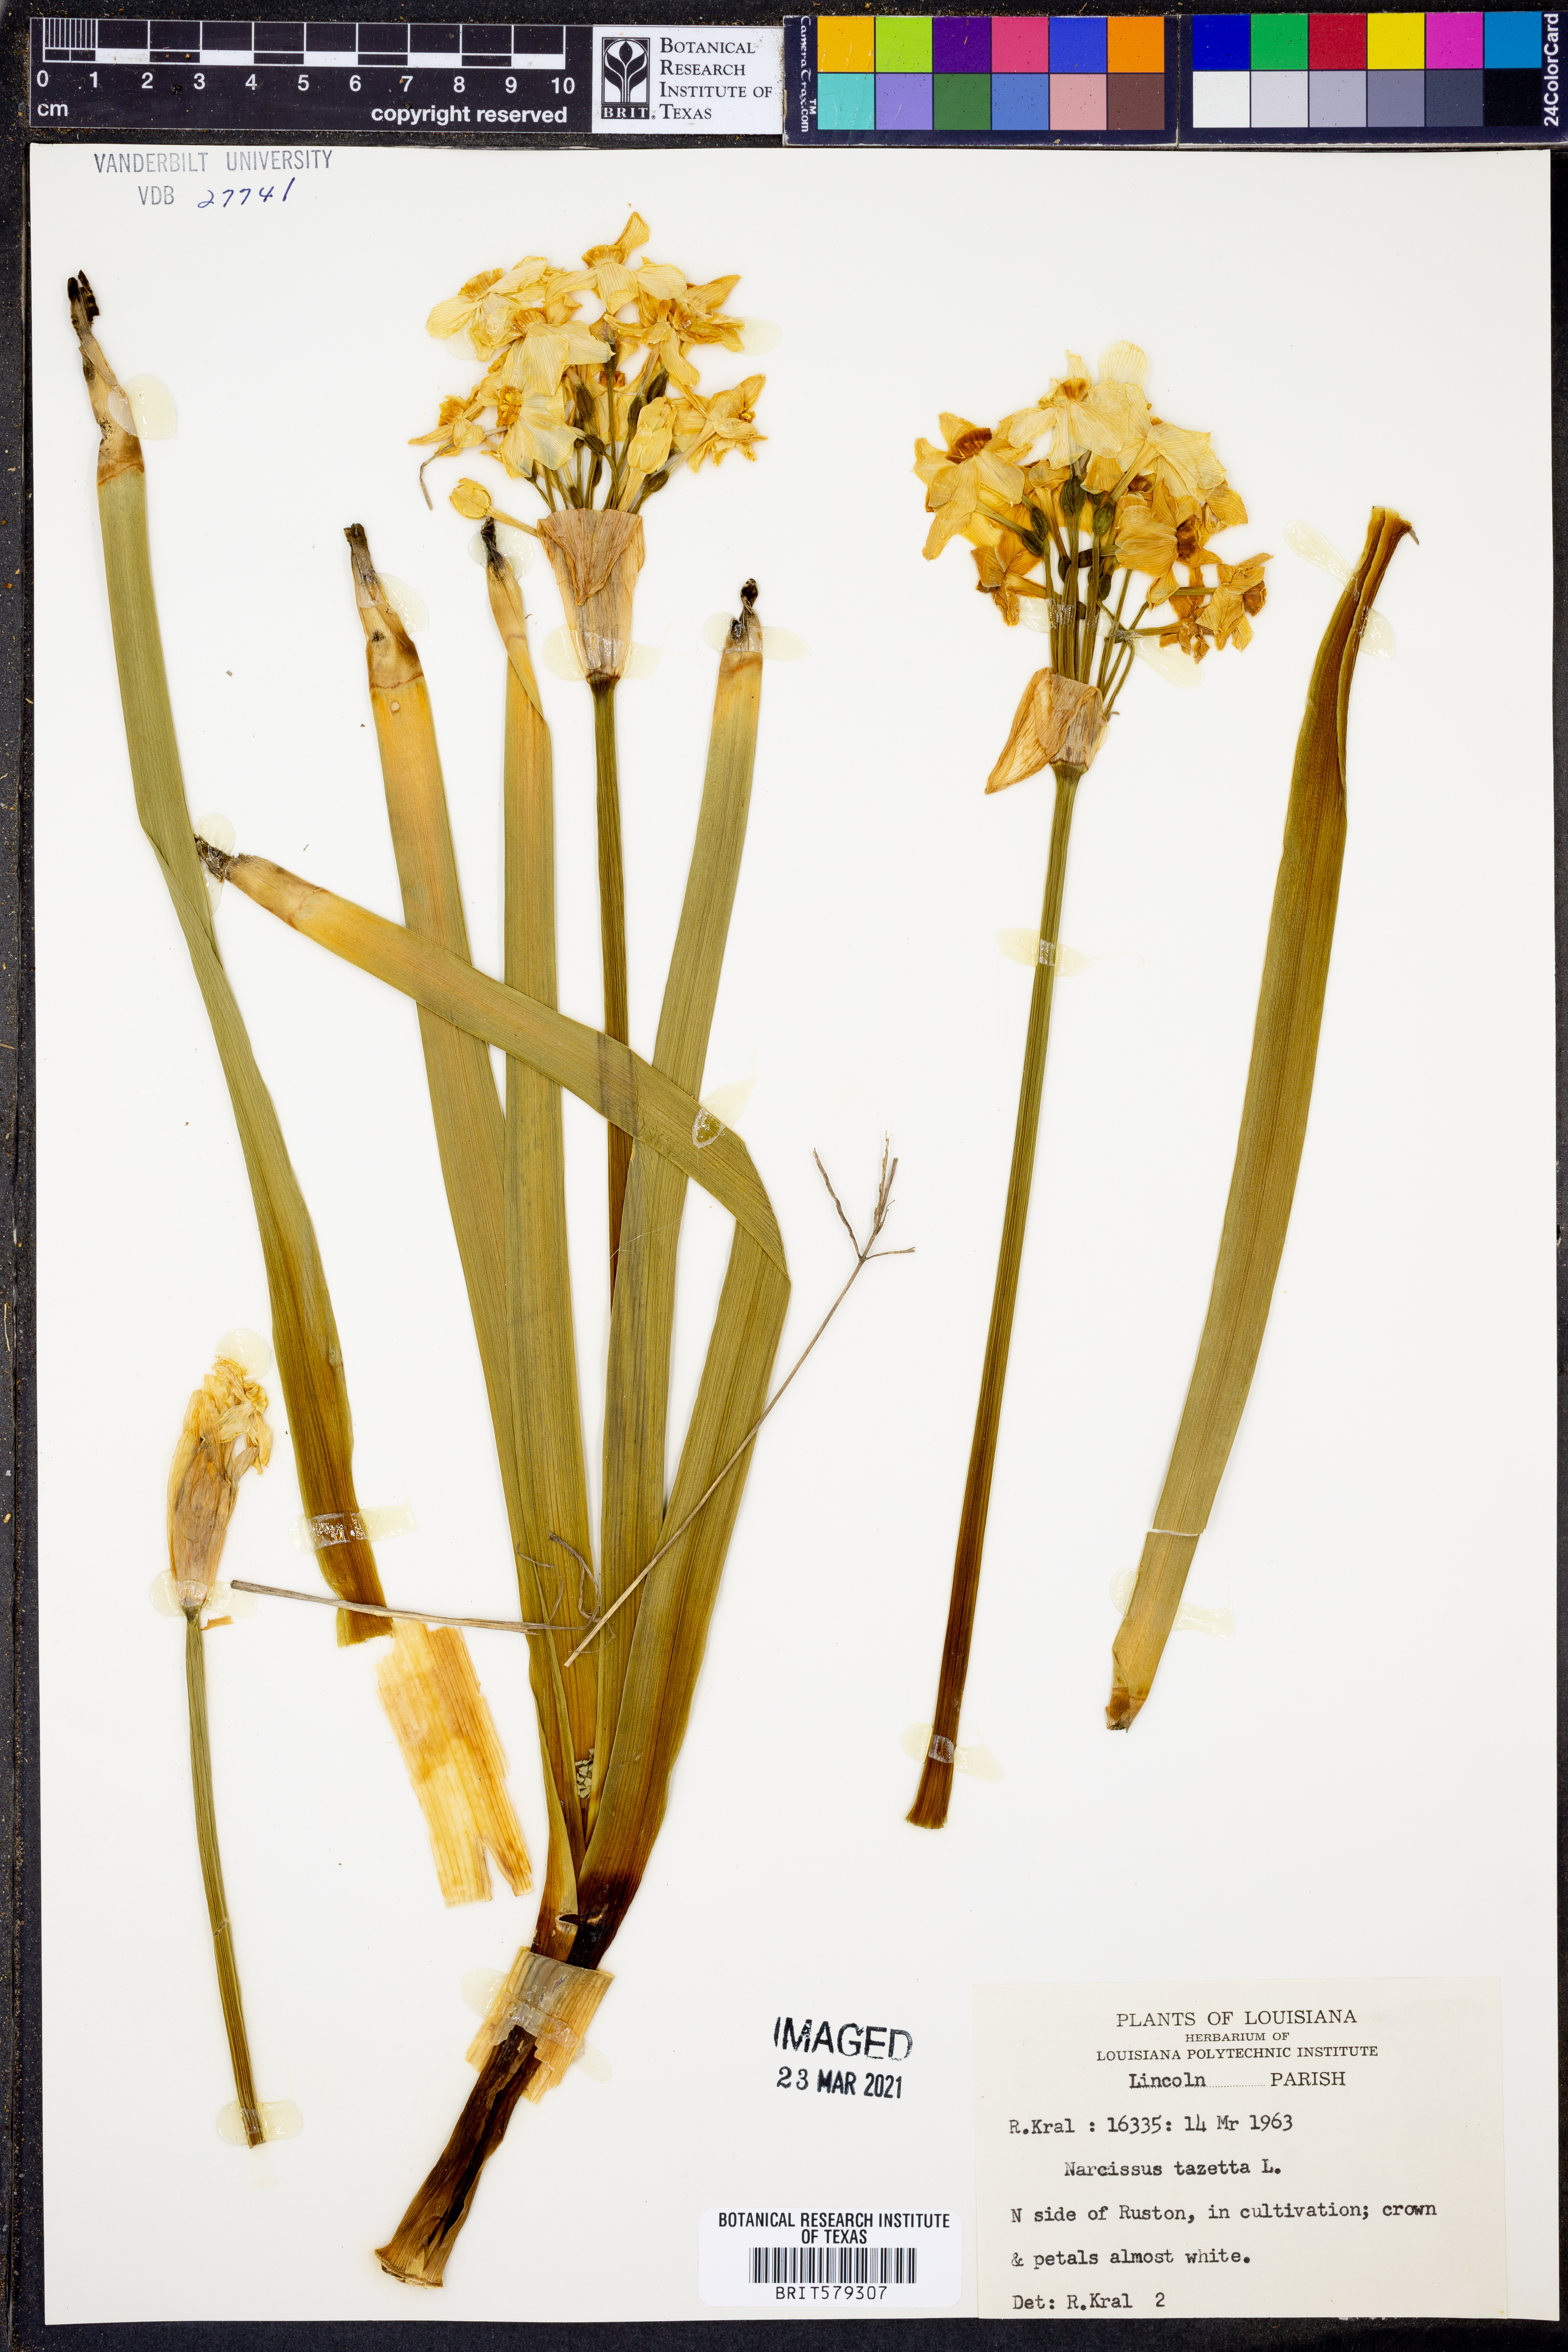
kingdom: Plantae
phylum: Tracheophyta
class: Liliopsida
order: Asparagales
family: Amaryllidaceae
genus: Narcissus
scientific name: Narcissus tazetta
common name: Bunch-flowered daffodil
